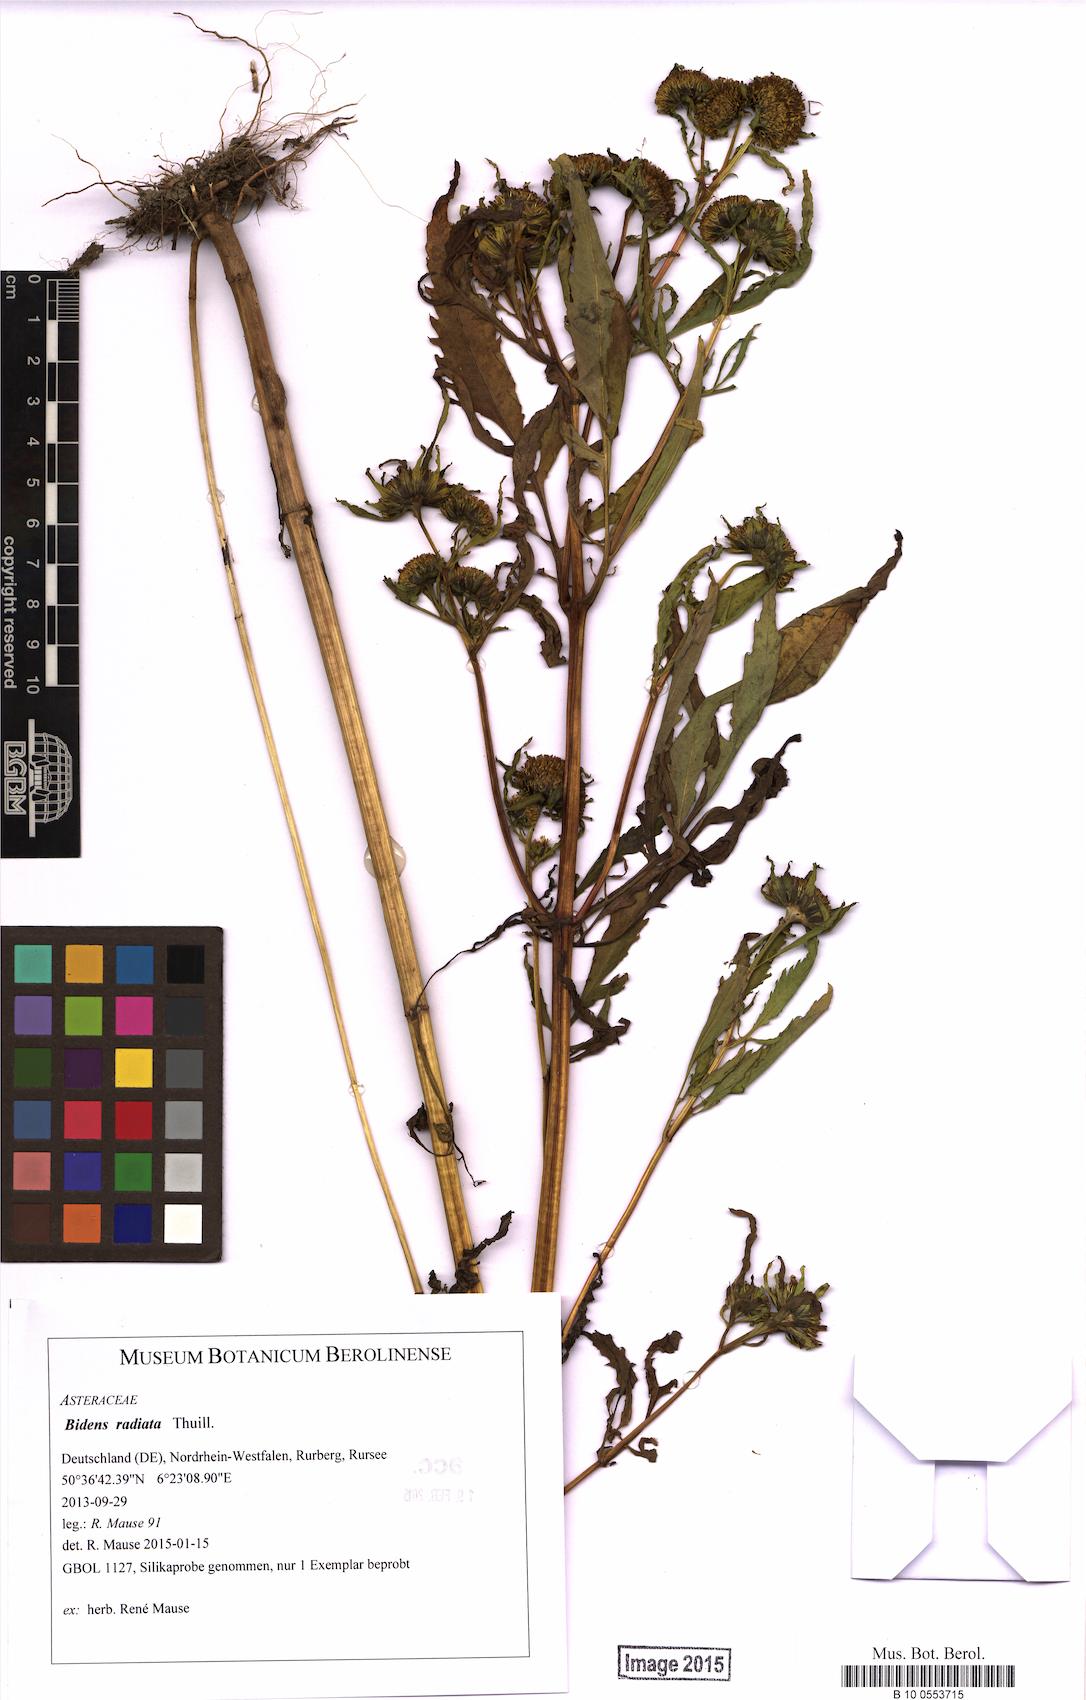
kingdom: Plantae
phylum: Tracheophyta
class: Magnoliopsida
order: Asterales
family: Asteraceae
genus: Bidens
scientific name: Bidens radiata
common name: Radiating bur-marigold
